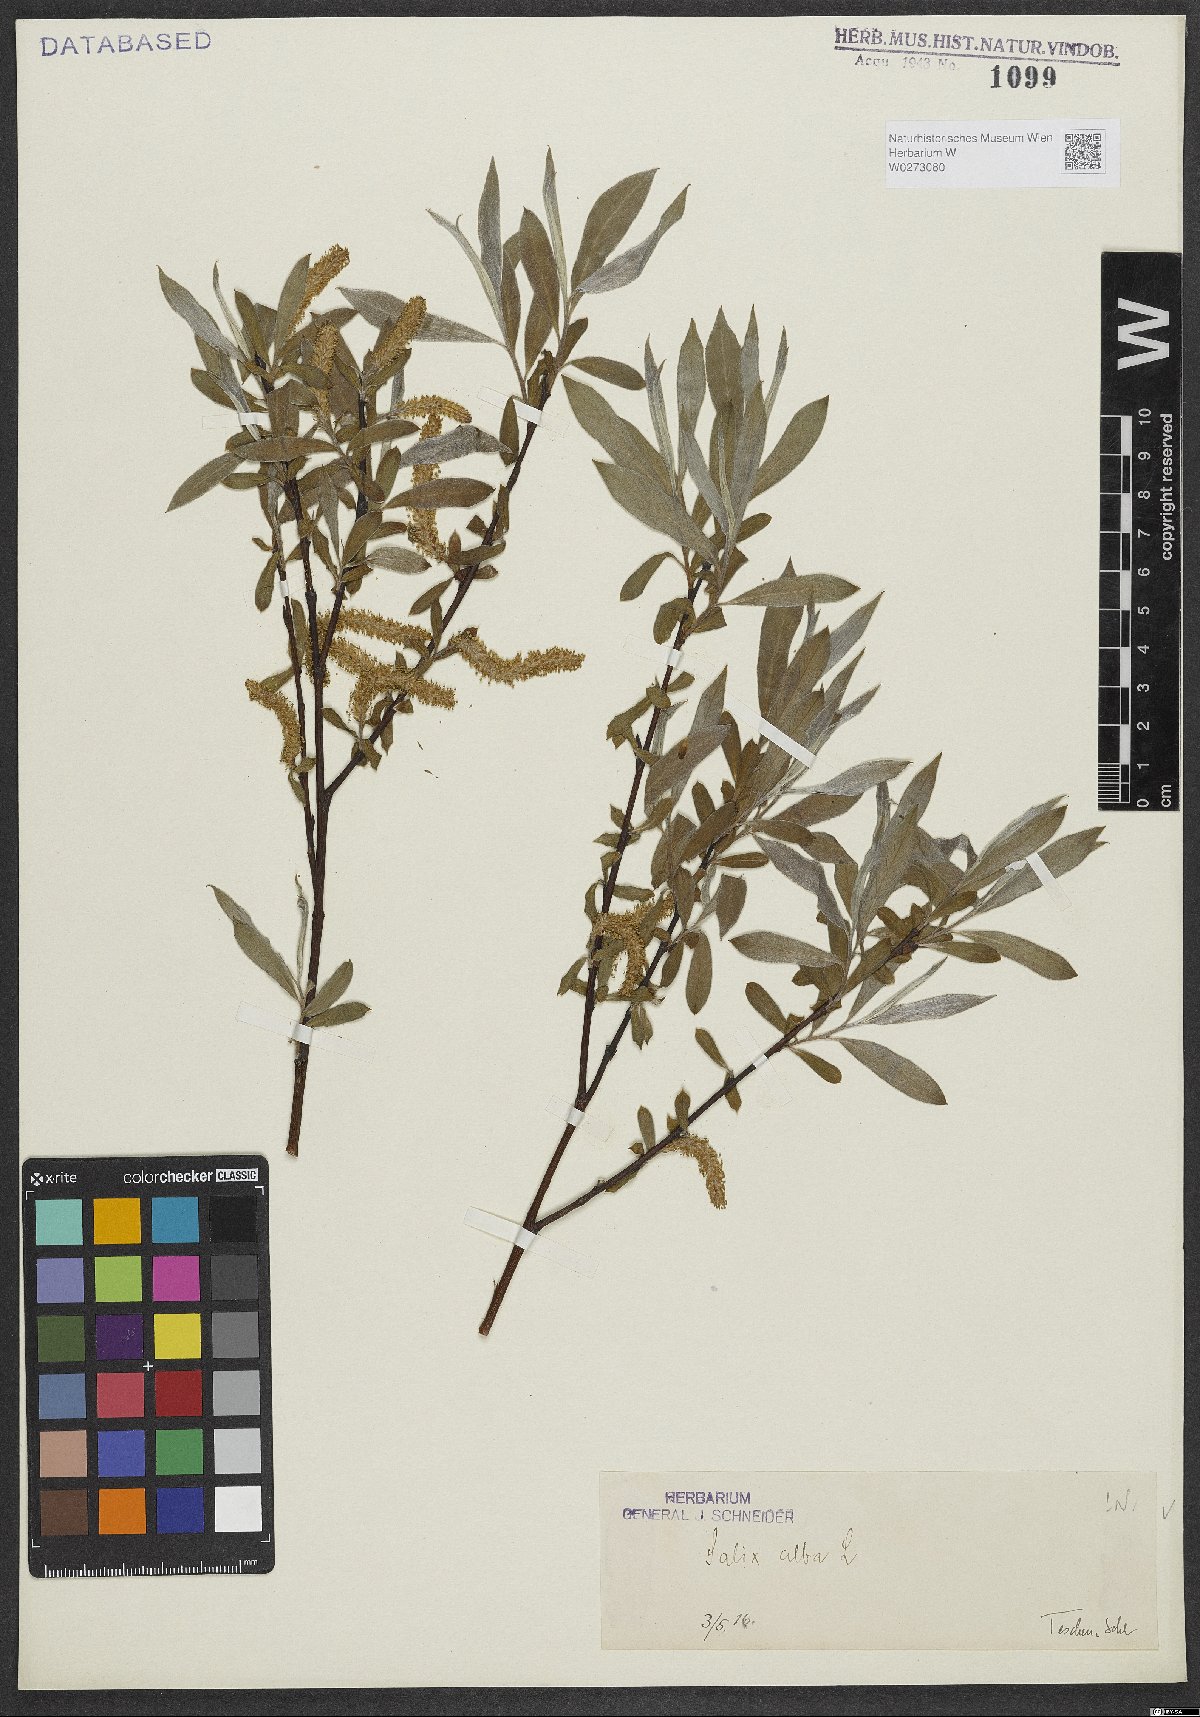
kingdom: Plantae
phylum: Tracheophyta
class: Magnoliopsida
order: Malpighiales
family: Salicaceae
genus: Salix
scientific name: Salix alba
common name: White willow
